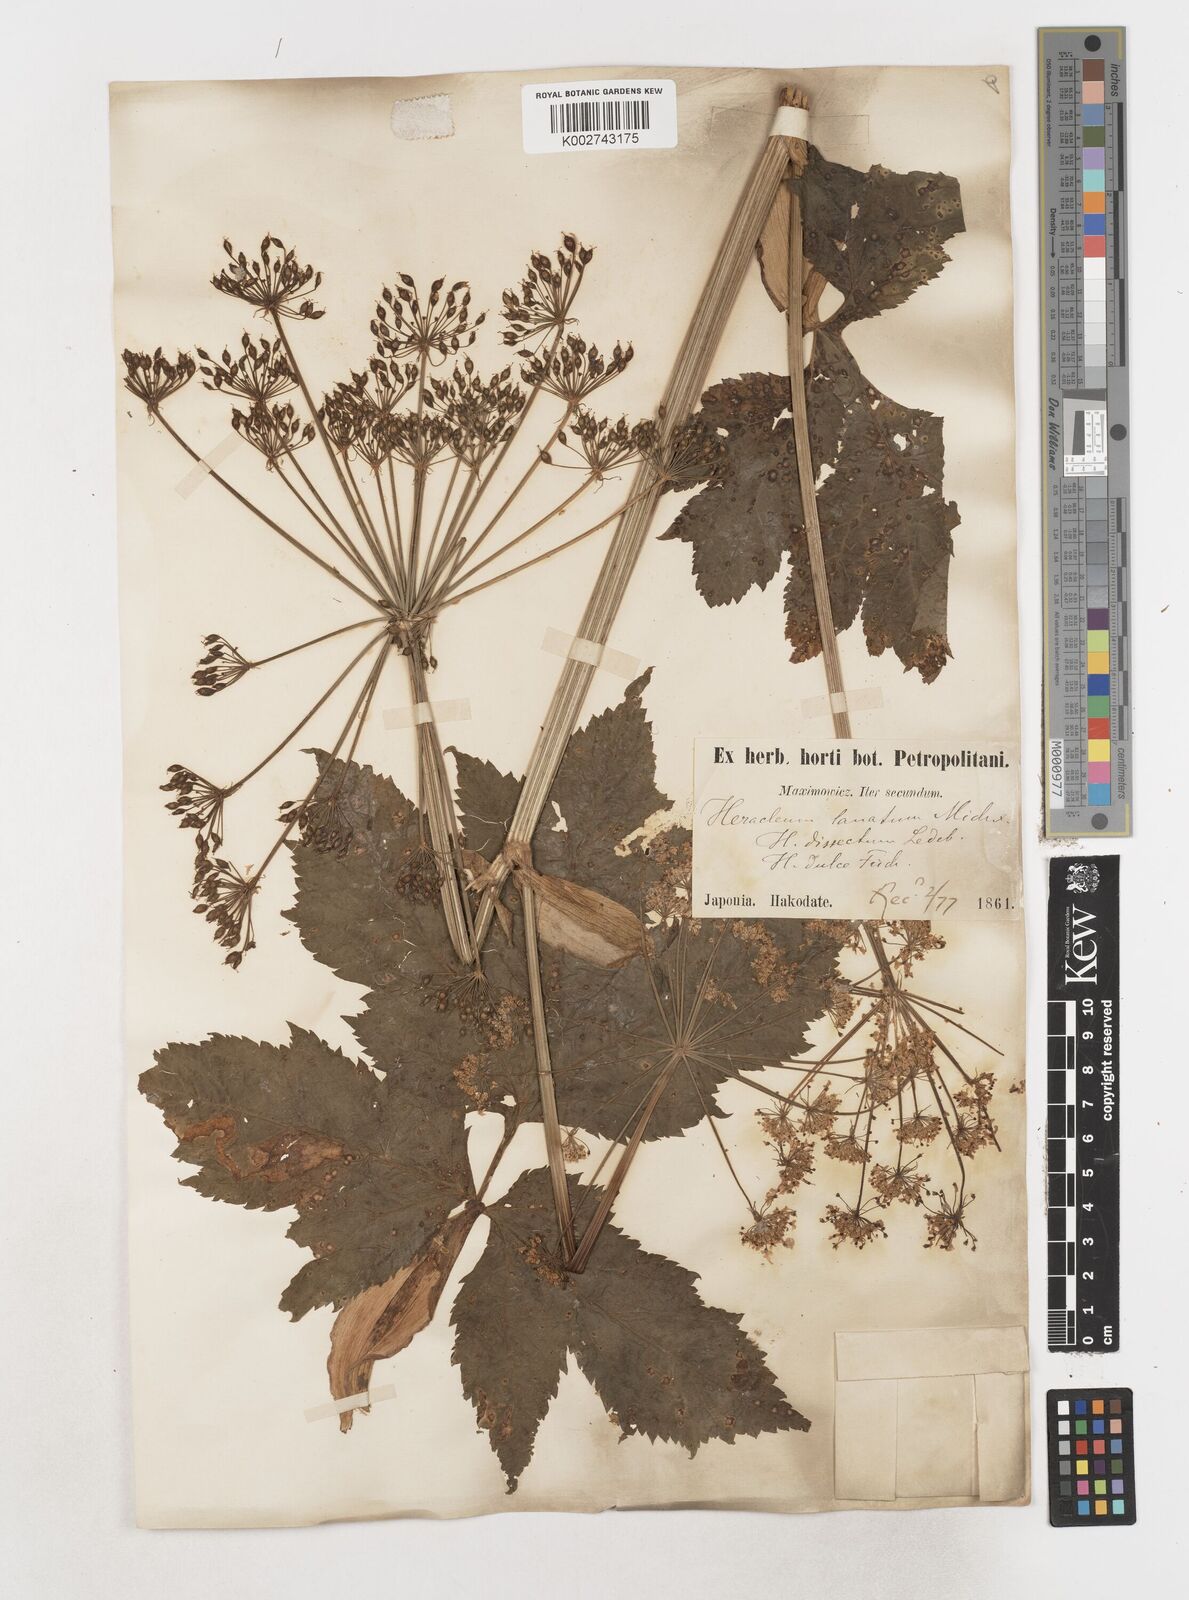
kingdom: Plantae
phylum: Tracheophyta
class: Magnoliopsida
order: Apiales
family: Apiaceae
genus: Heracleum
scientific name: Heracleum maximum
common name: American cow parsnip
